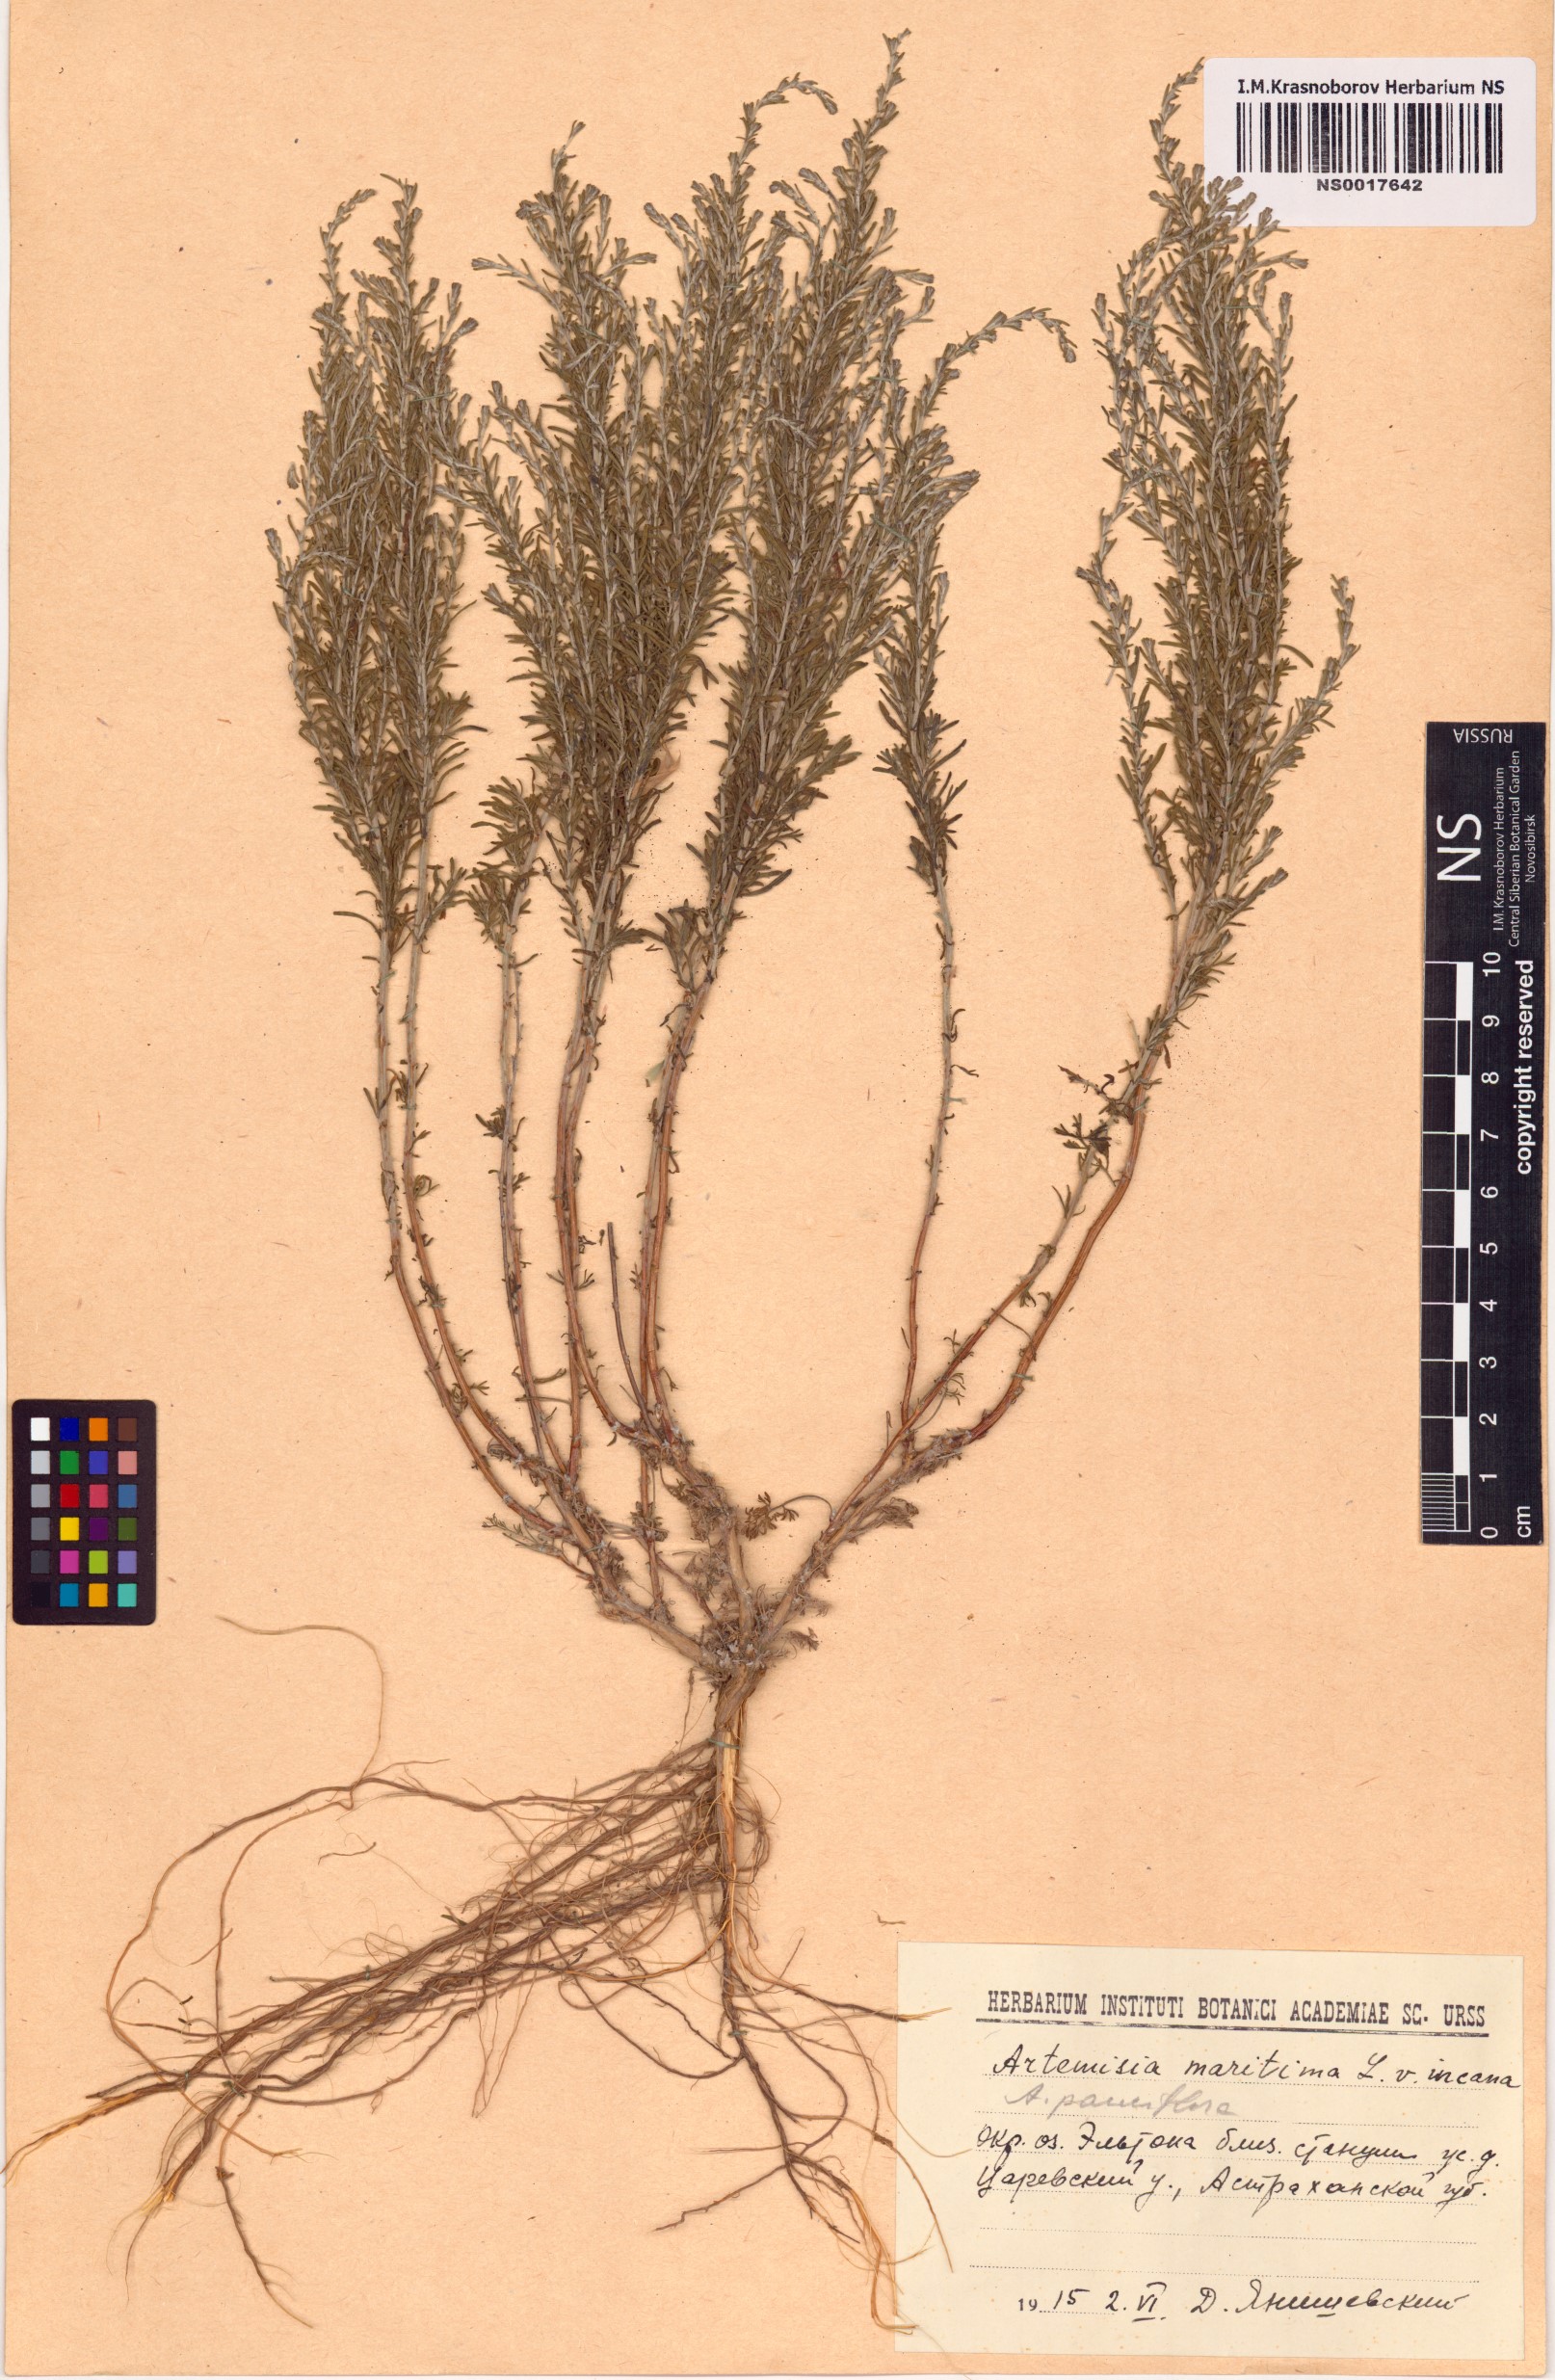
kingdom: Plantae
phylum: Tracheophyta
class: Magnoliopsida
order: Asterales
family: Asteraceae
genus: Artemisia
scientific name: Artemisia pauciflora
